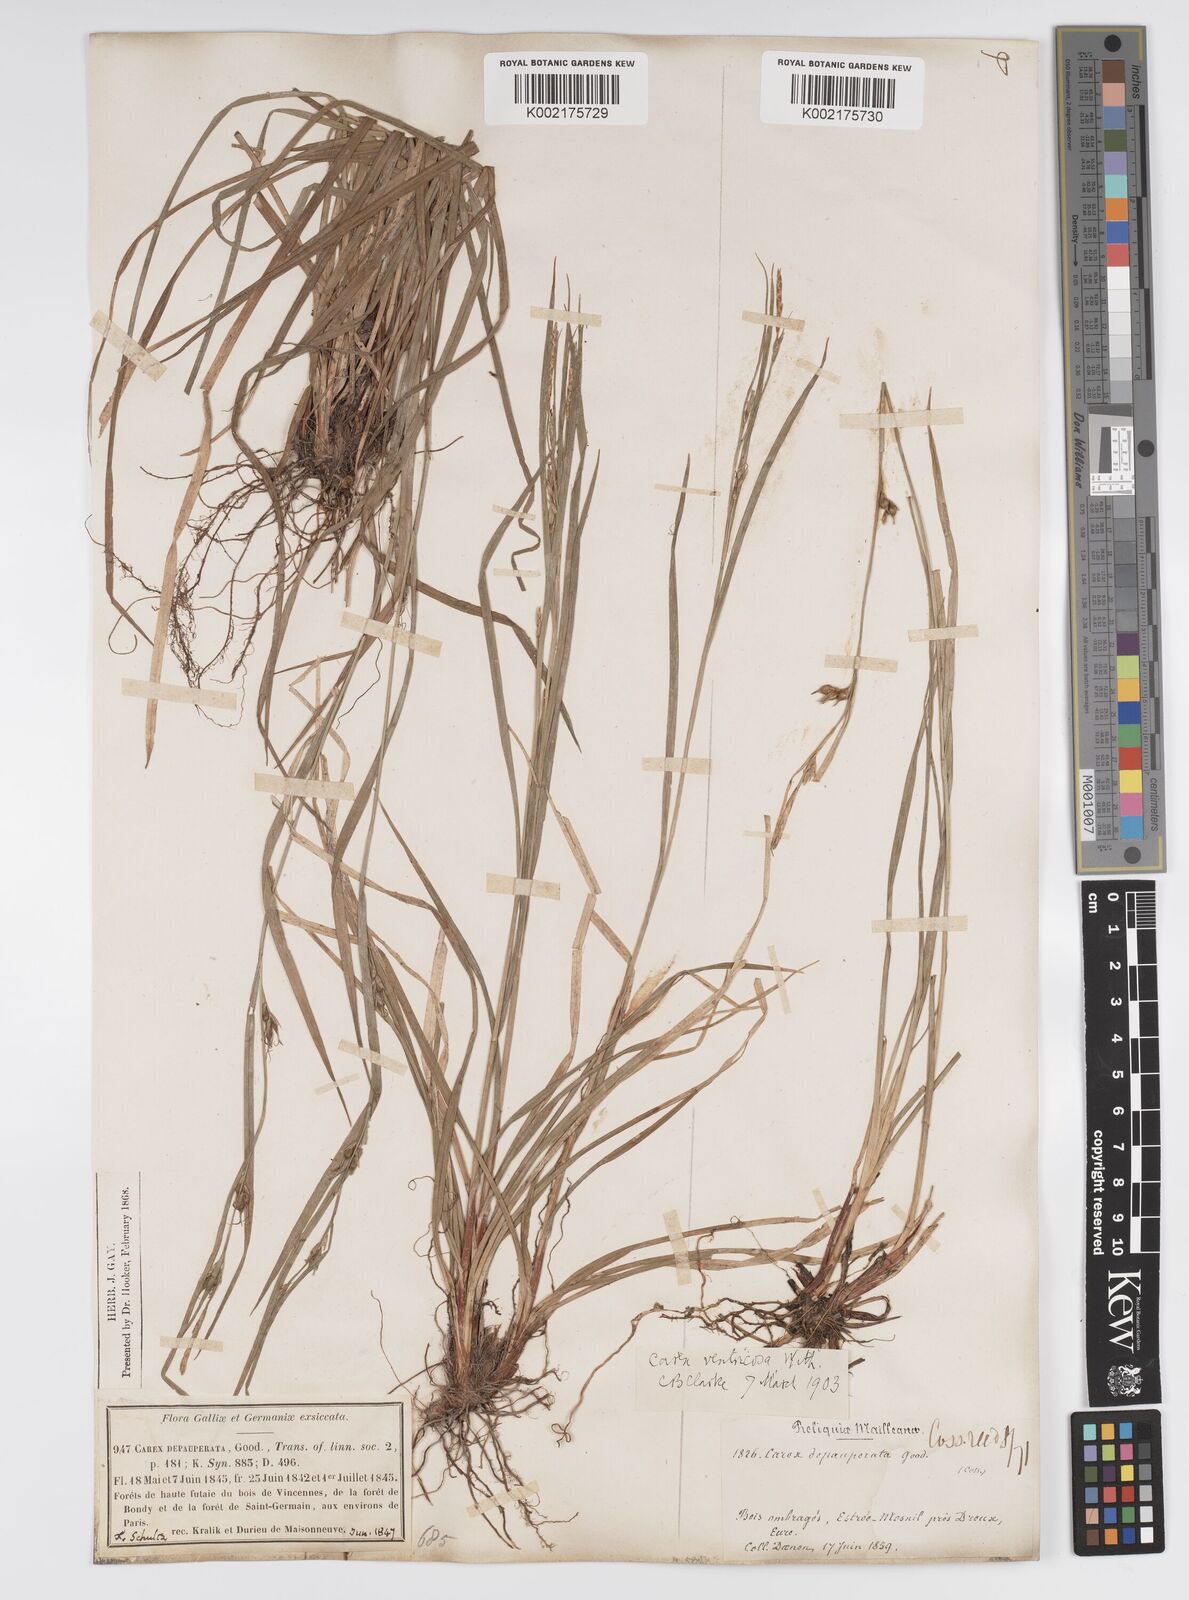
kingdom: Plantae
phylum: Tracheophyta
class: Liliopsida
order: Poales
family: Cyperaceae
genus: Carex
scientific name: Carex
